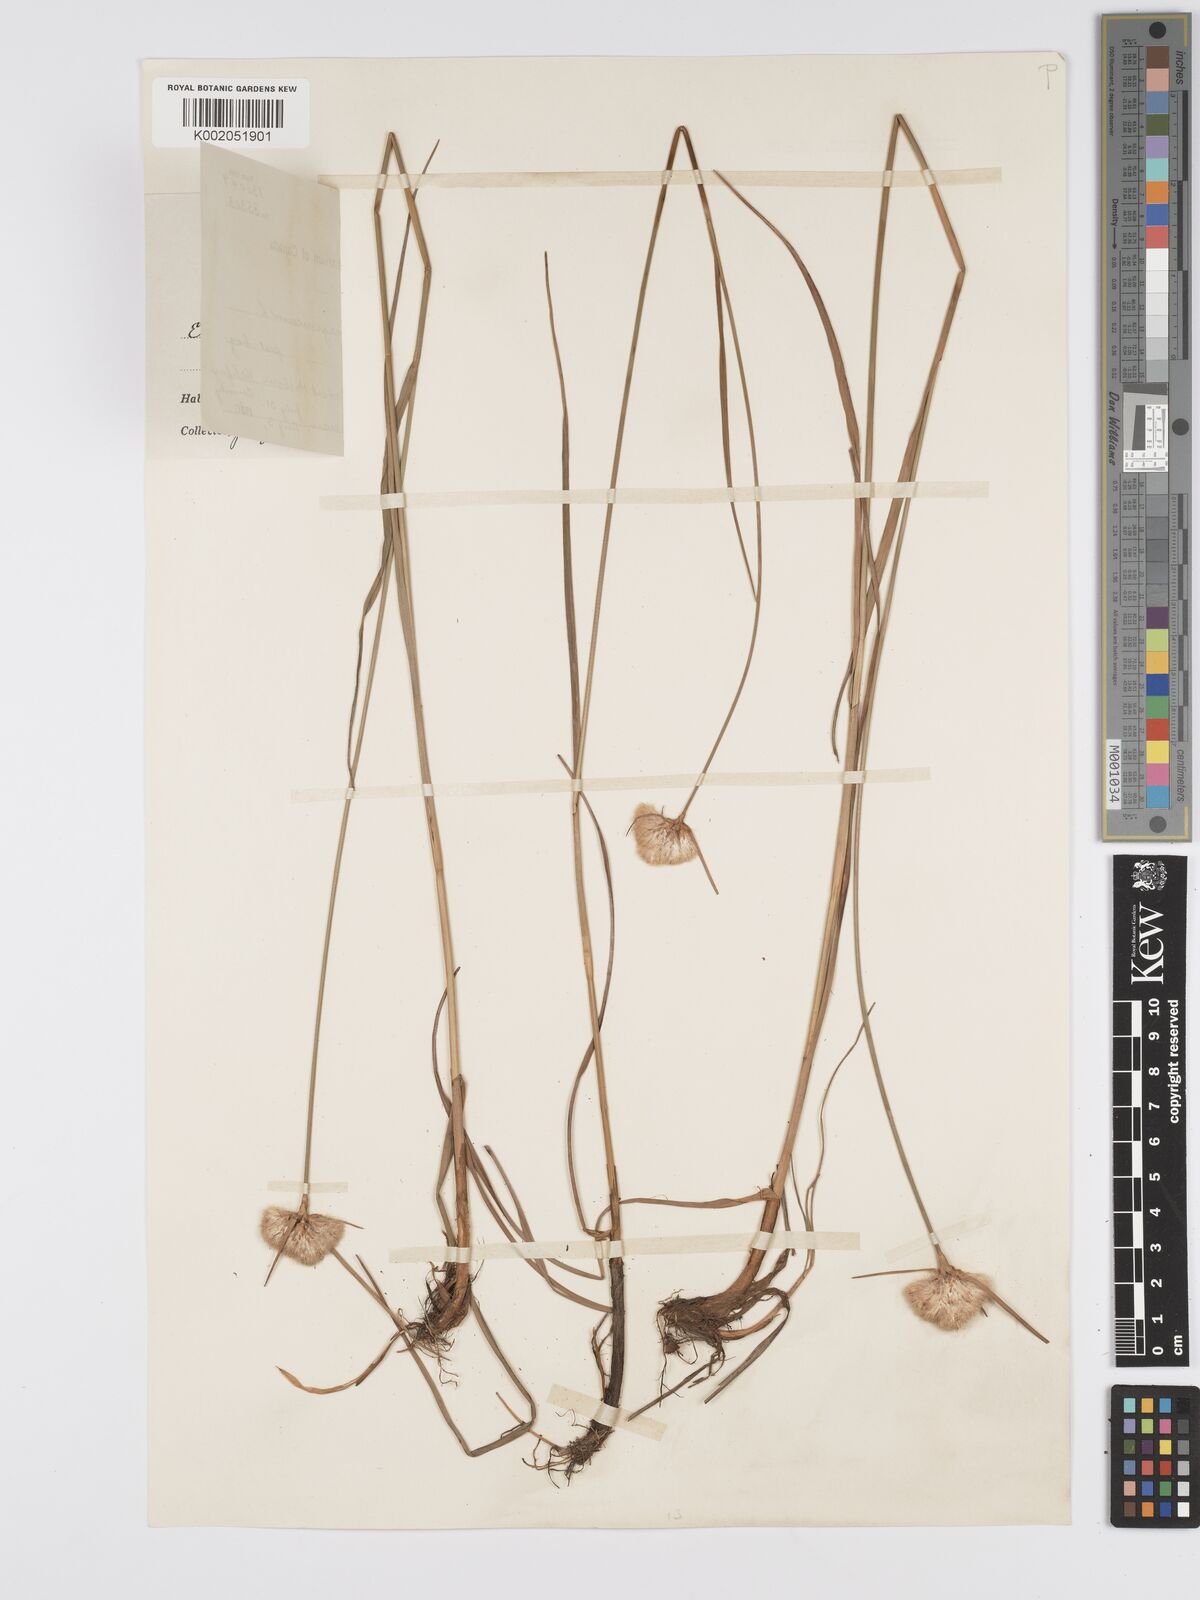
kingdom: Plantae
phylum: Tracheophyta
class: Liliopsida
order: Poales
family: Cyperaceae
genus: Eriophorum
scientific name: Eriophorum virginicum
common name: Tawny cottongrass
